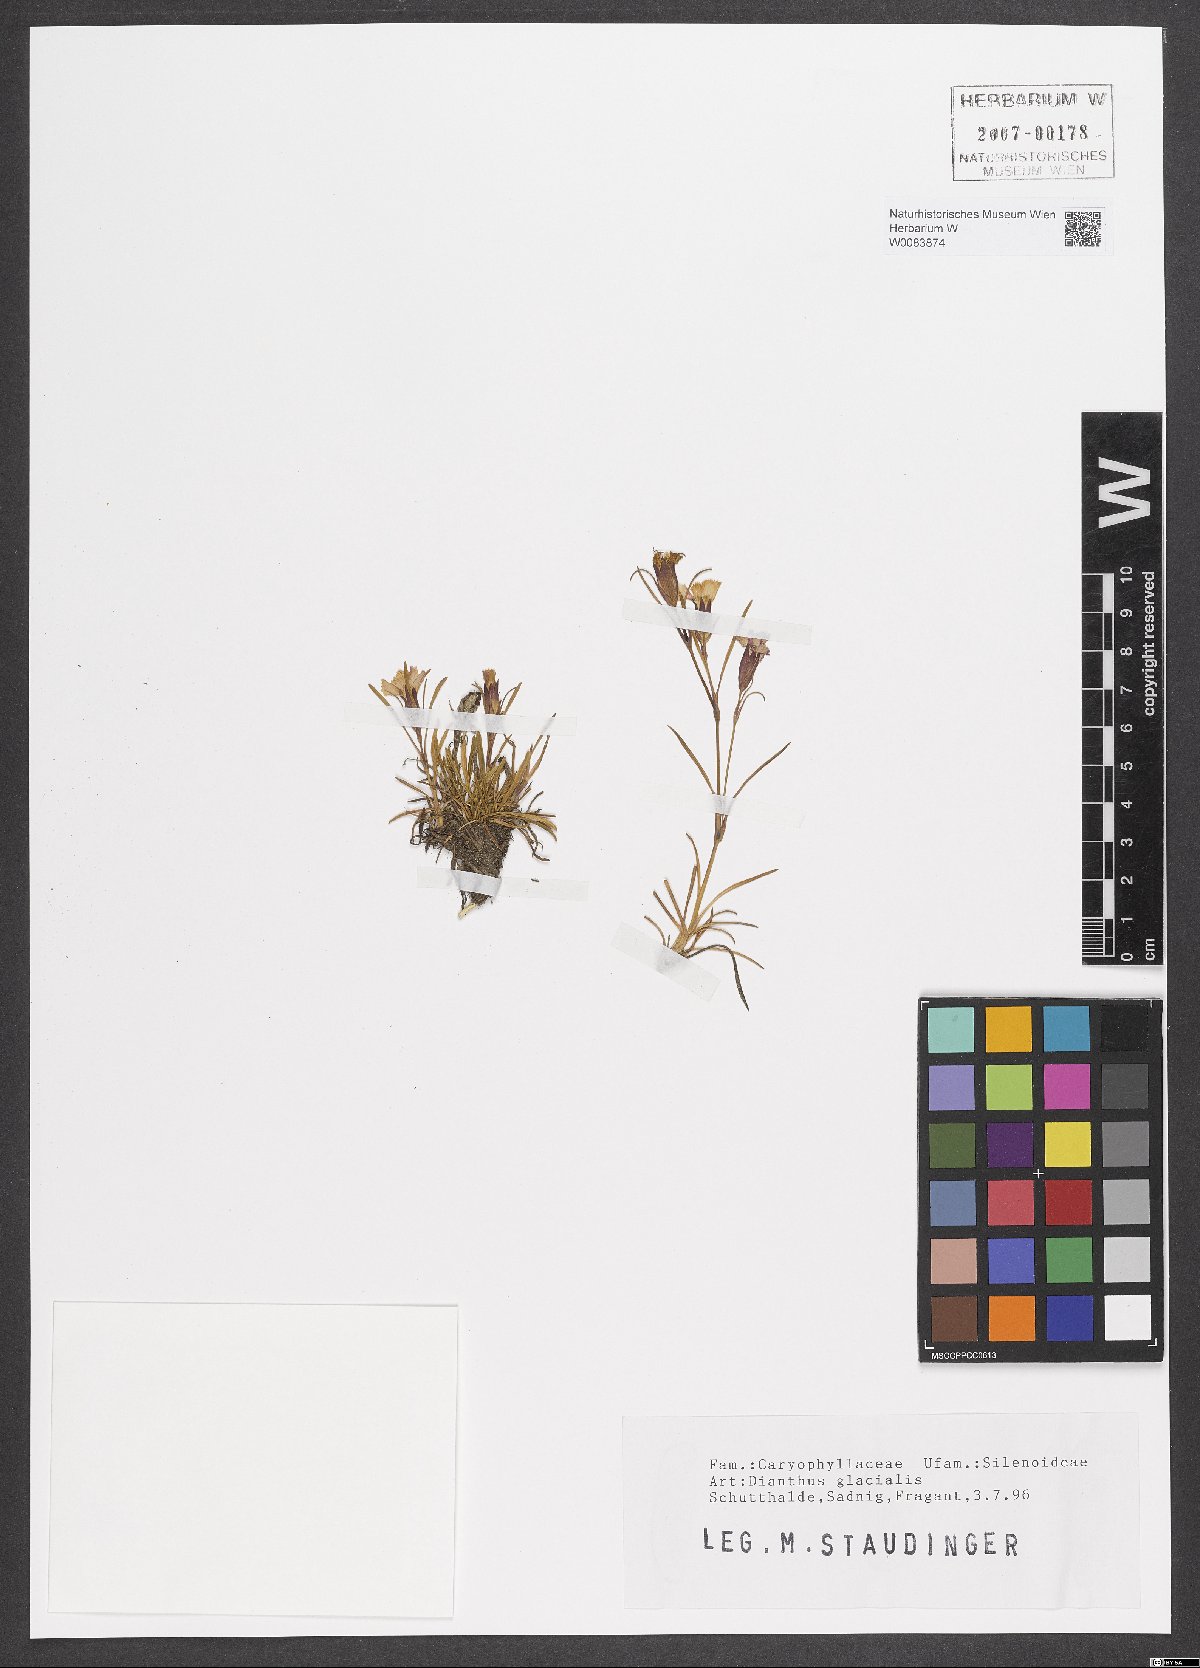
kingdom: Plantae
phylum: Tracheophyta
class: Magnoliopsida
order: Caryophyllales
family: Caryophyllaceae
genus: Dianthus
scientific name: Dianthus glacialis
